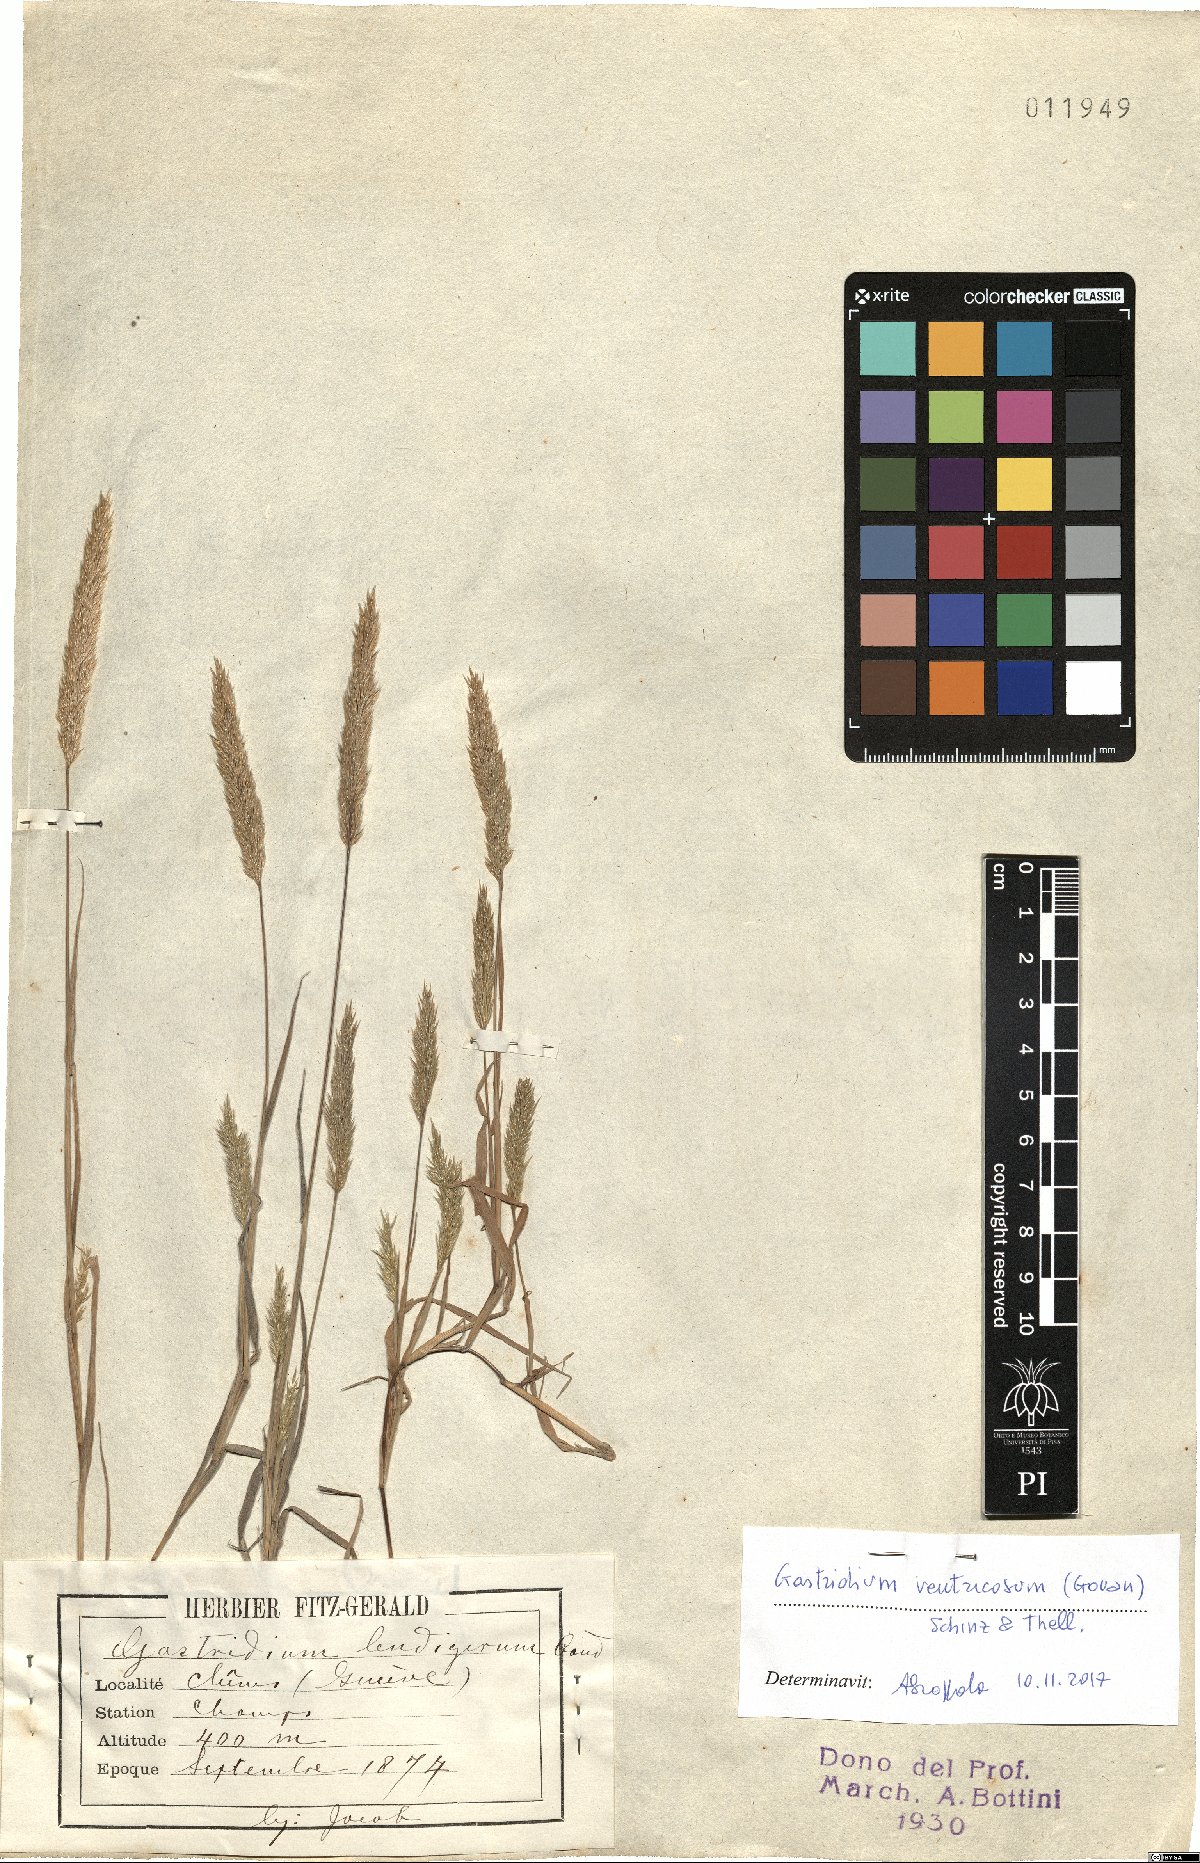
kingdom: Plantae
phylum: Tracheophyta
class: Liliopsida
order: Poales
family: Poaceae
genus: Gastridium
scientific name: Gastridium ventricosum
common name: Nit-grass
